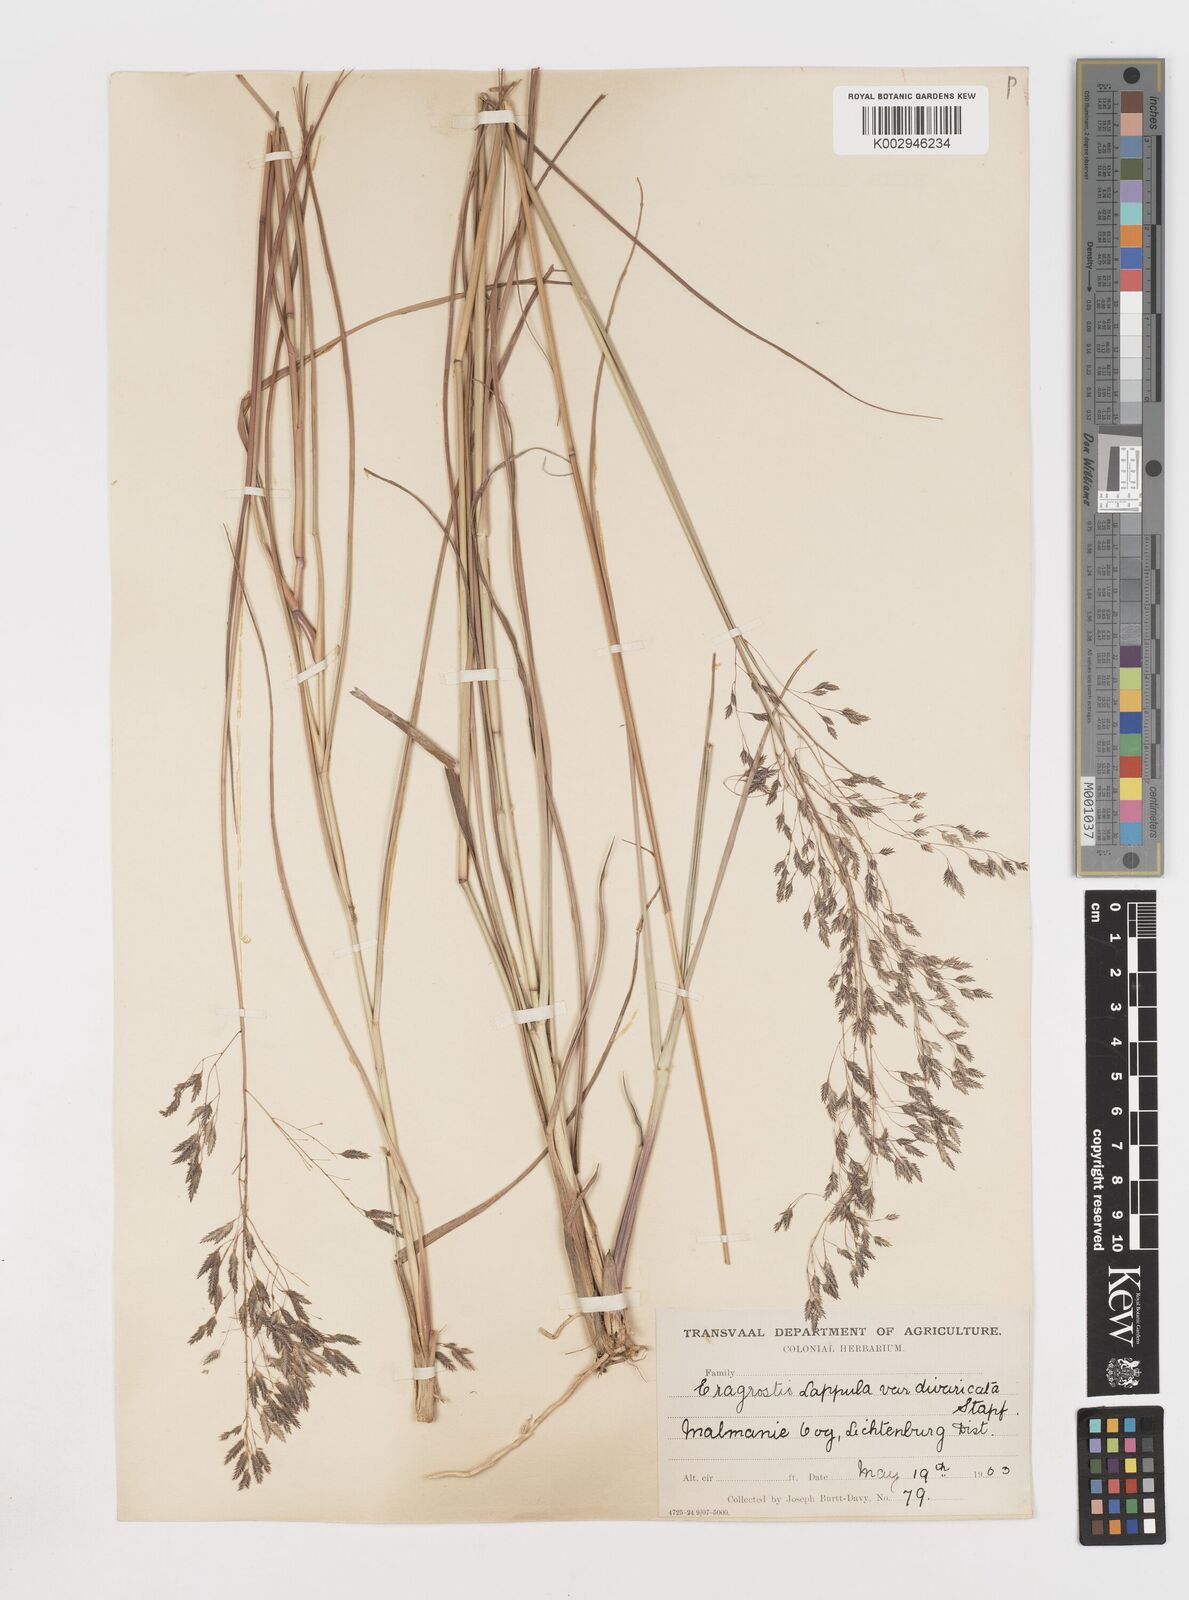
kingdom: Plantae
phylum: Tracheophyta
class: Liliopsida
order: Poales
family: Poaceae
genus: Eragrostis
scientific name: Eragrostis lappula
